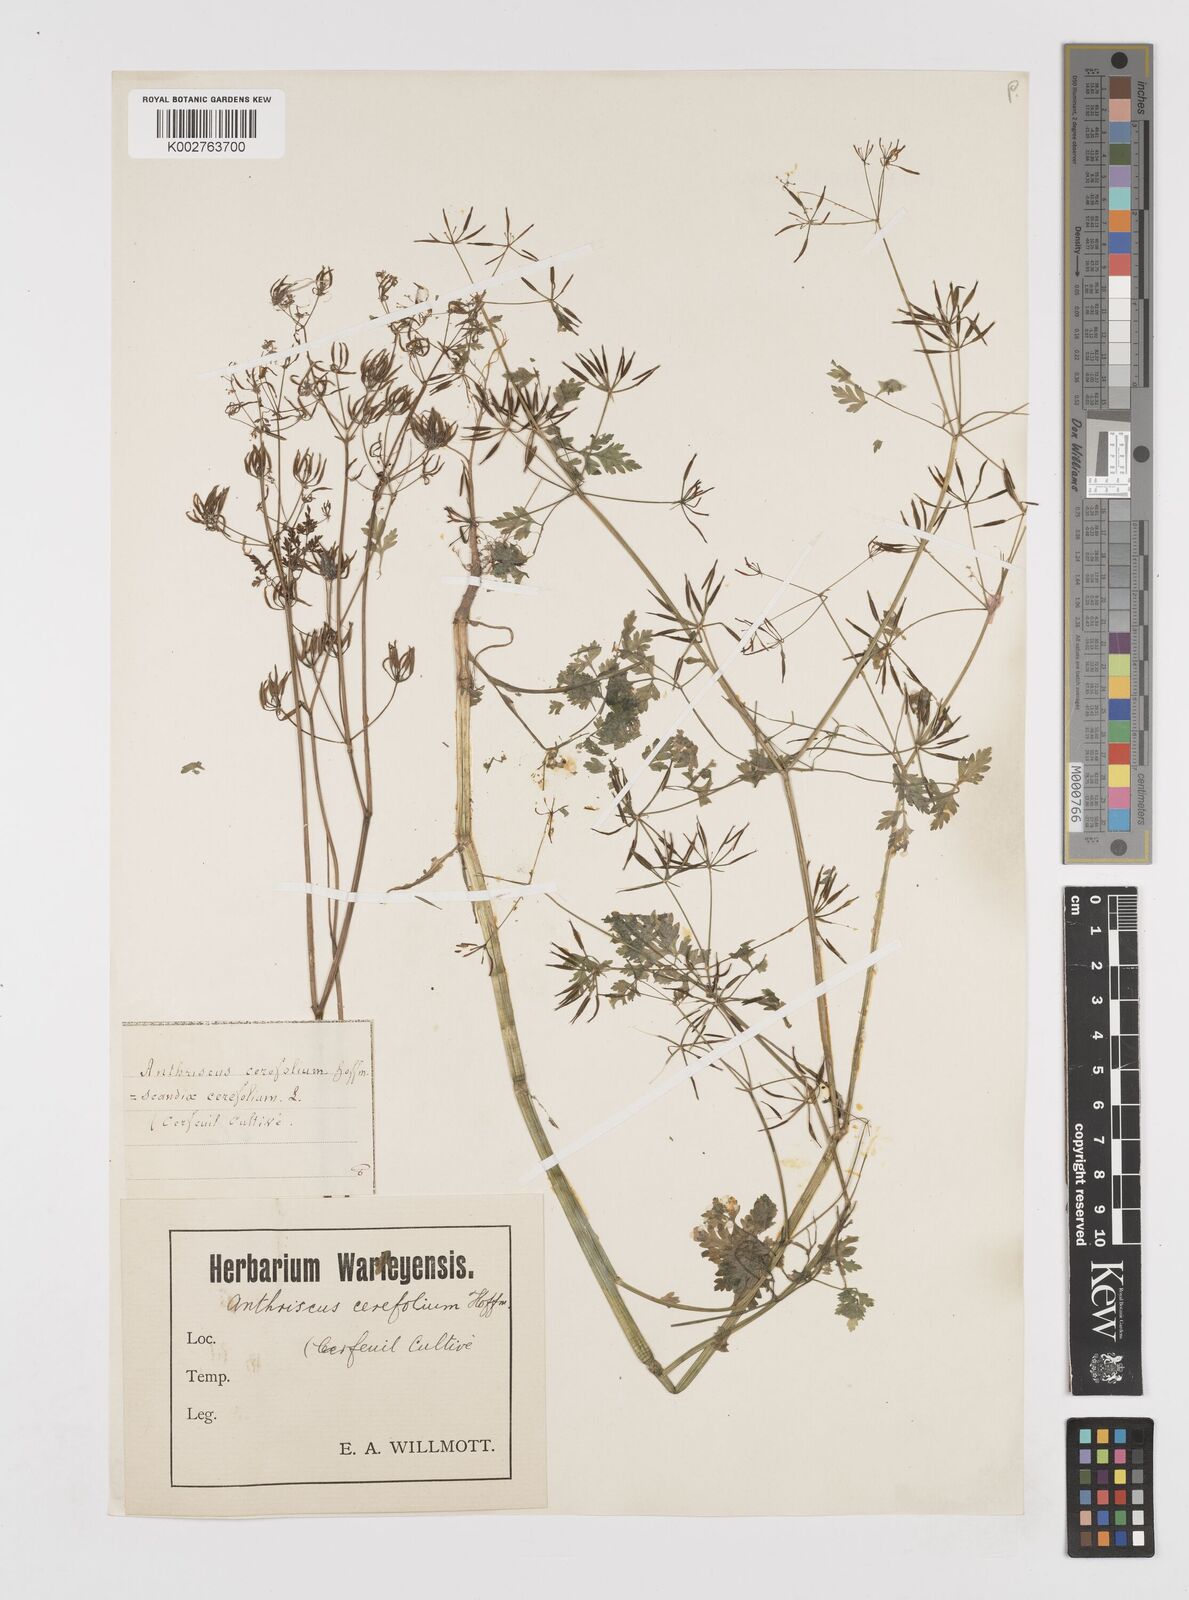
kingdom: Plantae
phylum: Tracheophyta
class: Magnoliopsida
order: Apiales
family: Apiaceae
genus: Anthriscus
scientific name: Anthriscus cerefolium
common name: Garden chervil
